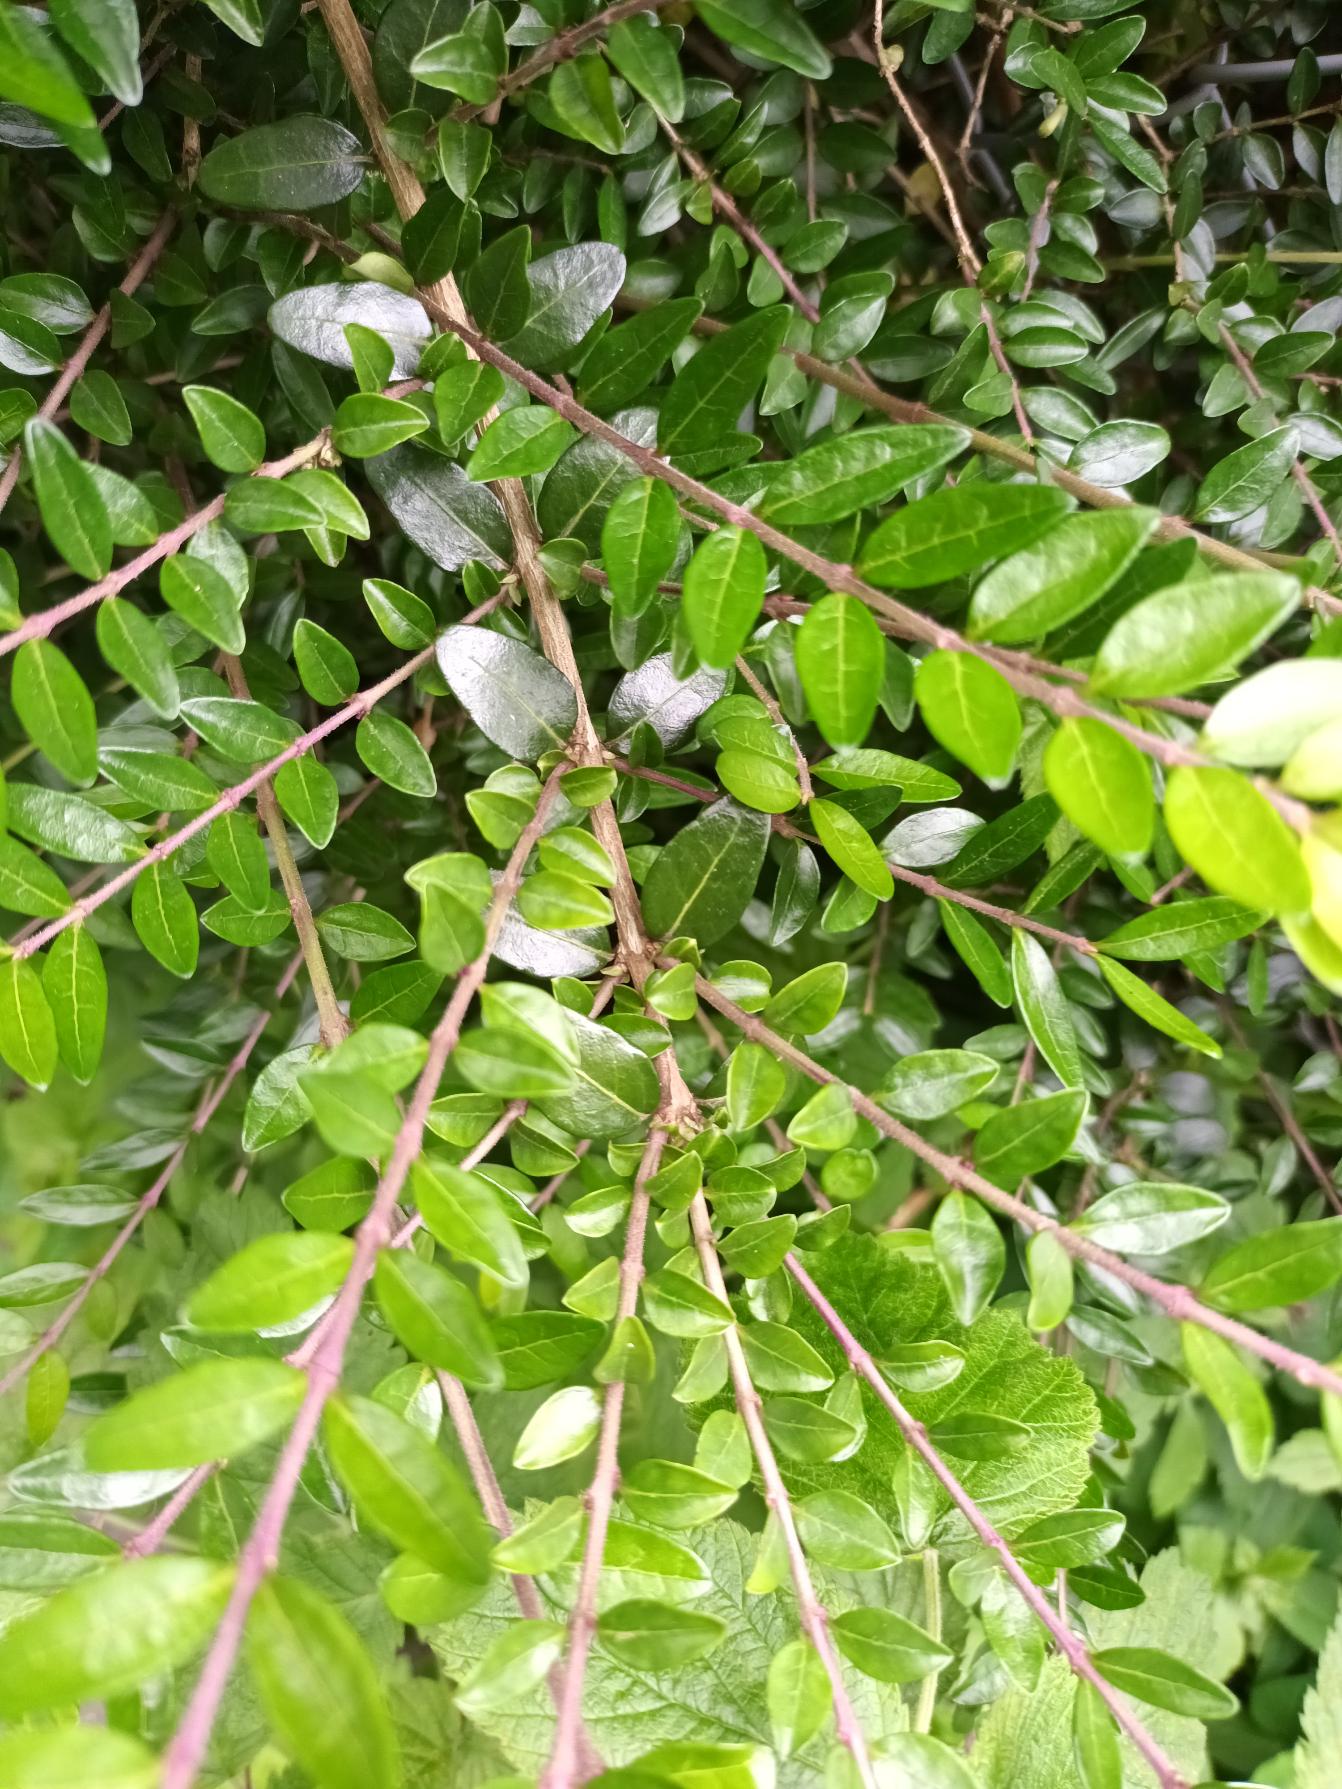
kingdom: Plantae
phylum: Tracheophyta
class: Magnoliopsida
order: Dipsacales
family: Caprifoliaceae
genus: Lonicera
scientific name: Lonicera pileata
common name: Liguster-gedeblad
